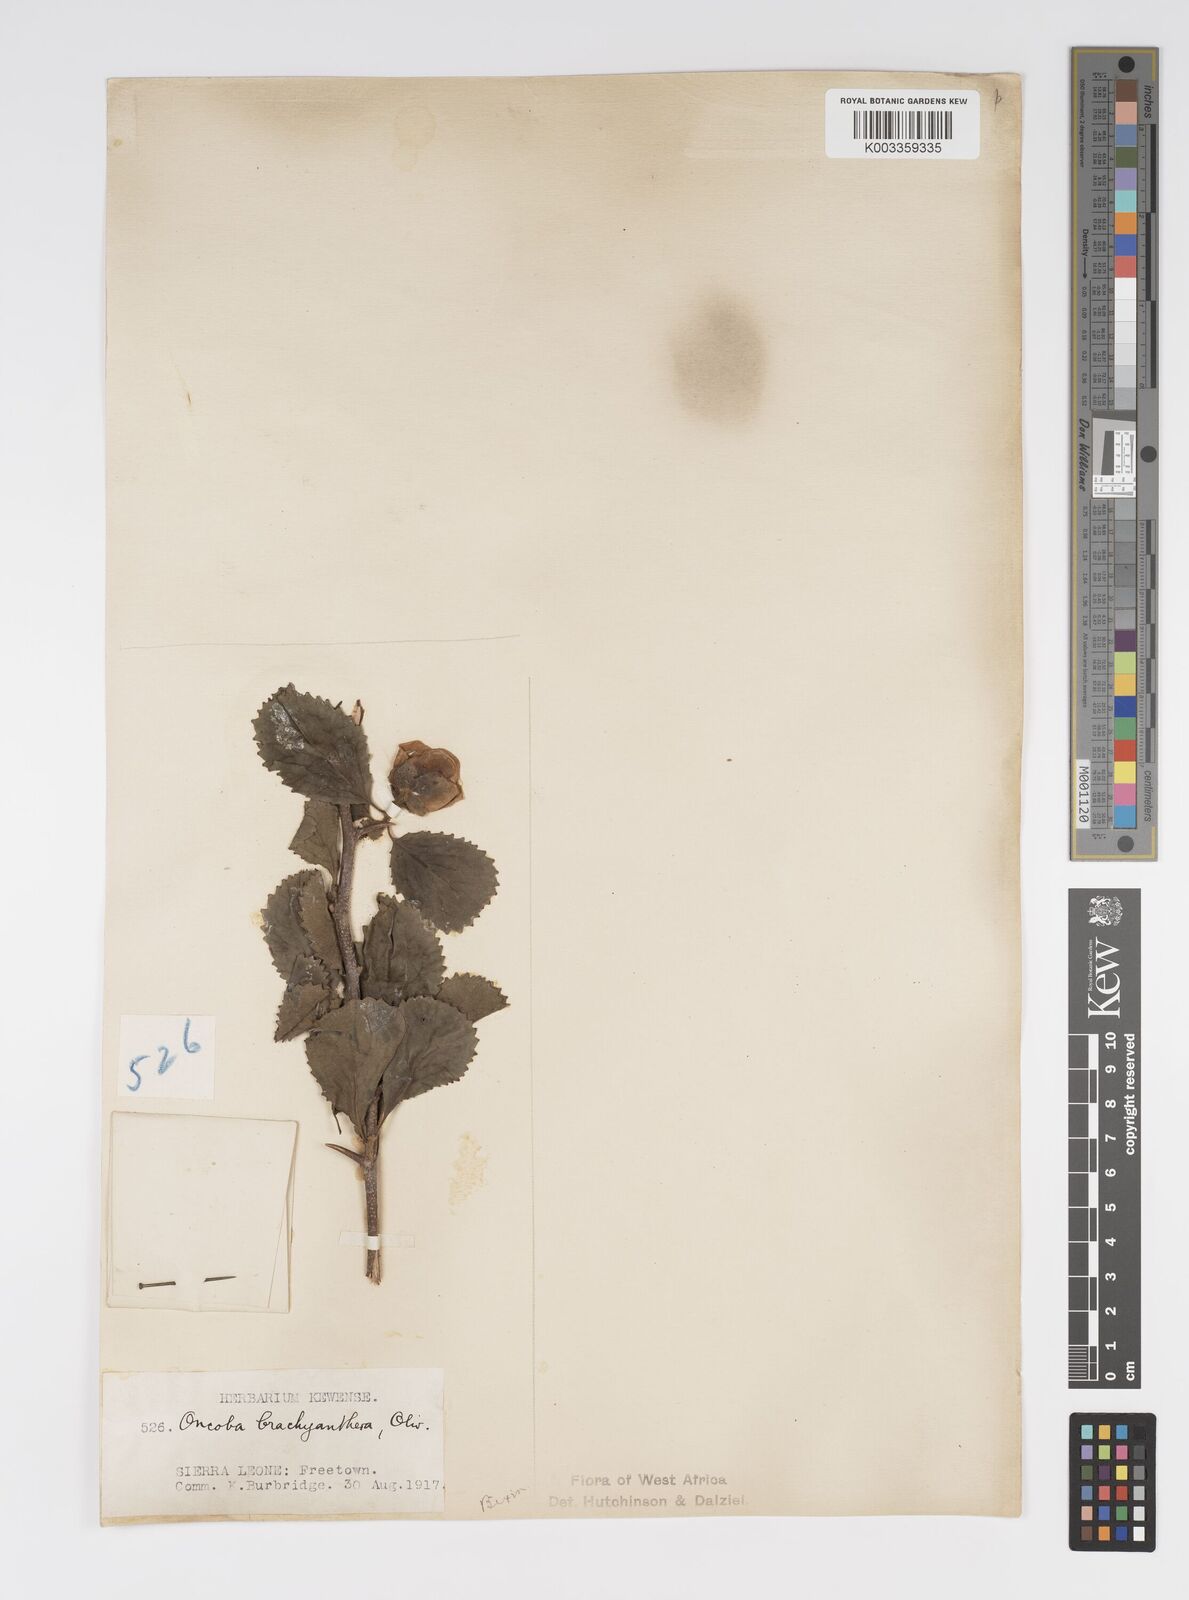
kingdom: Plantae
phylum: Tracheophyta
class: Magnoliopsida
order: Malpighiales
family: Salicaceae
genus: Oncoba
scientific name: Oncoba brachyanthera
